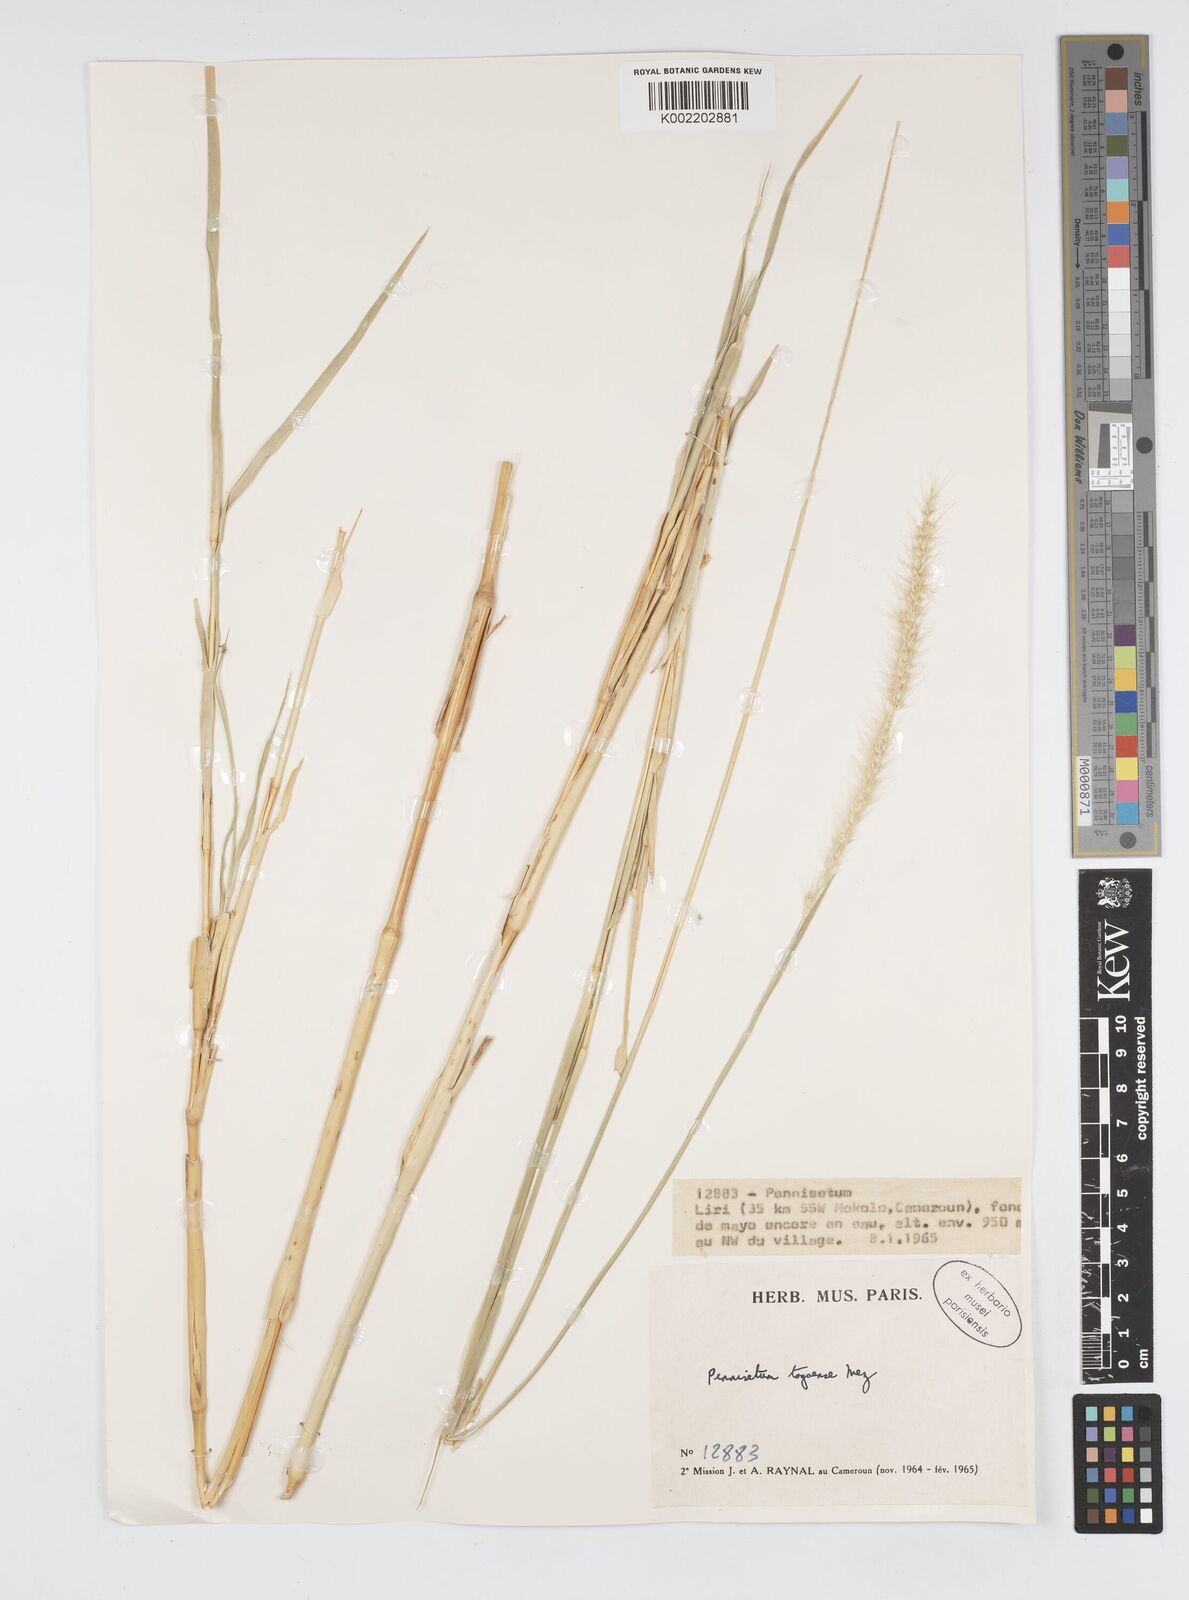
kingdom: Plantae
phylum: Tracheophyta
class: Liliopsida
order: Poales
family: Poaceae
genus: Cenchrus
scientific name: Cenchrus caudatus
